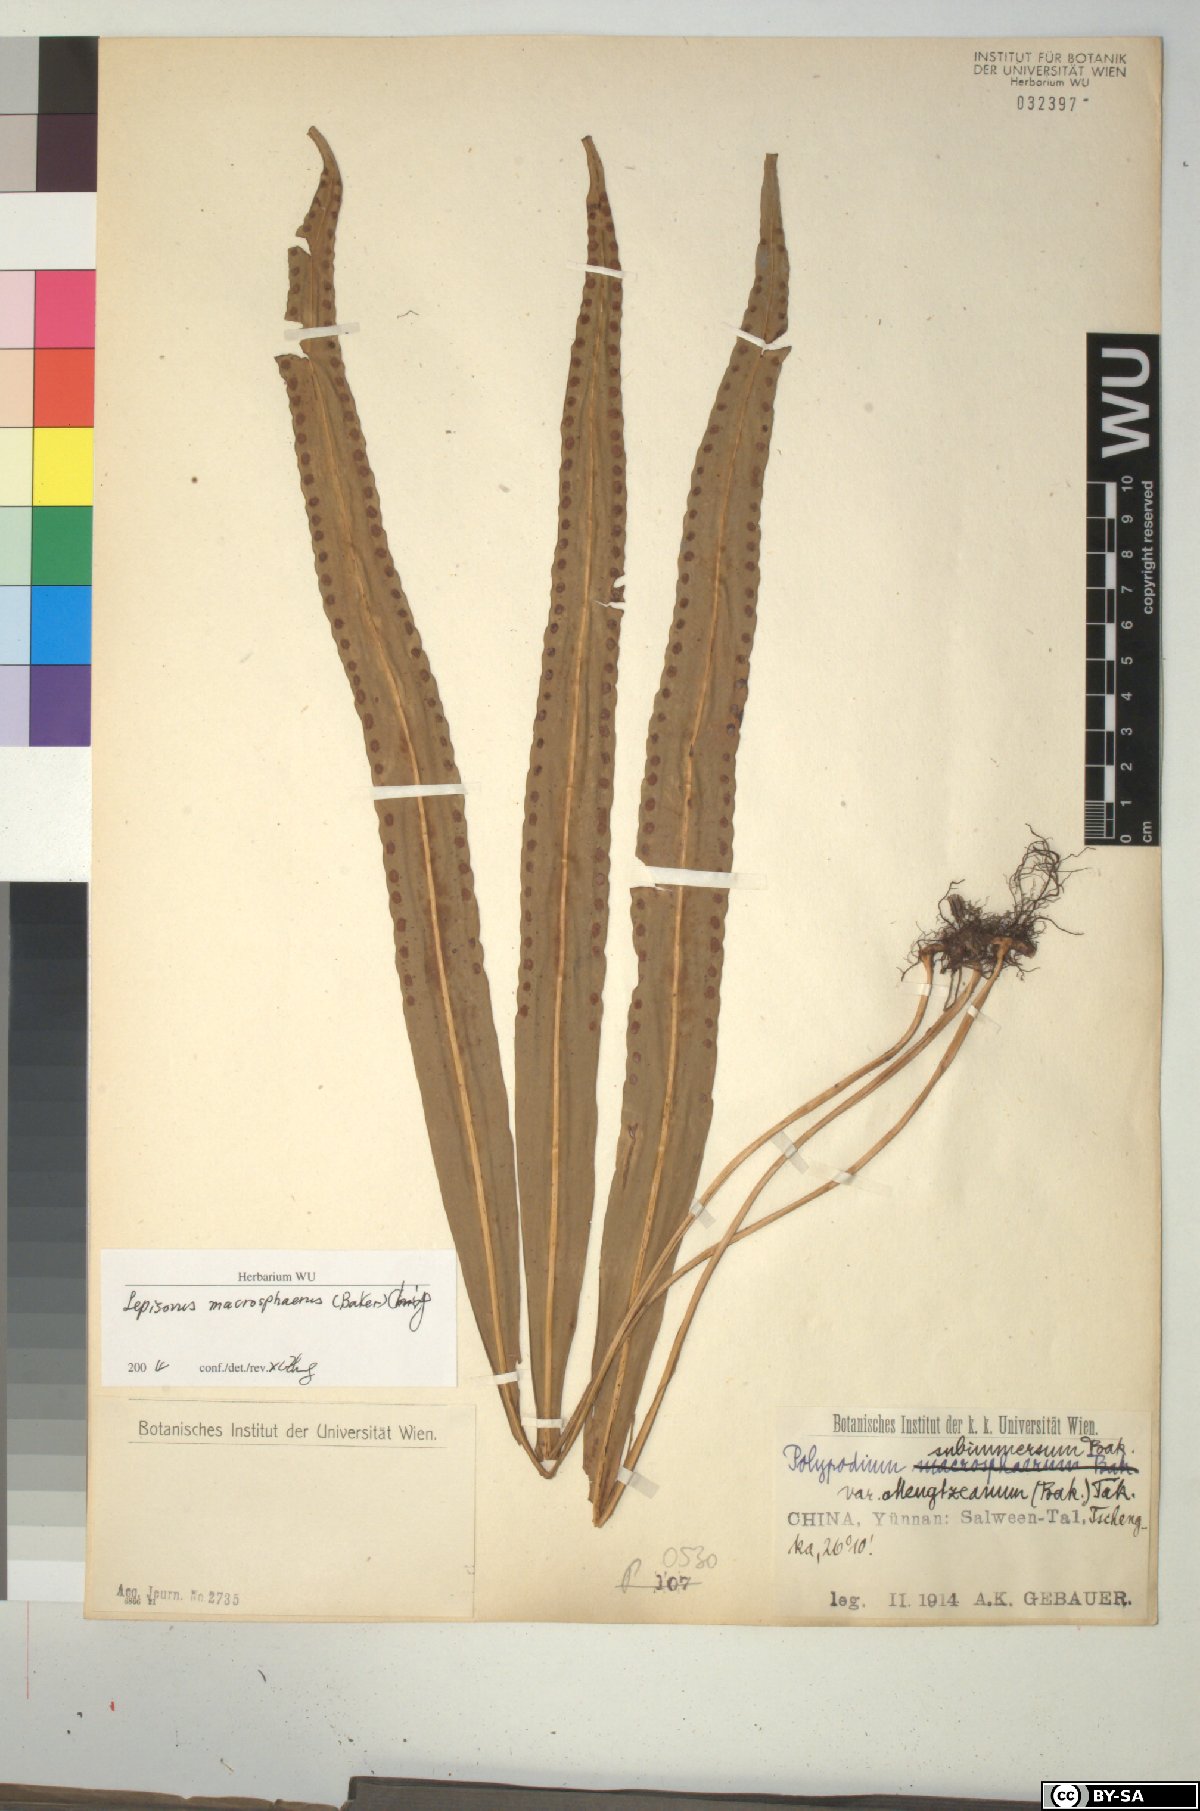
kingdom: Plantae
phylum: Tracheophyta
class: Polypodiopsida
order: Polypodiales
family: Polypodiaceae
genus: Lepisorus
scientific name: Lepisorus macrosphaerus
